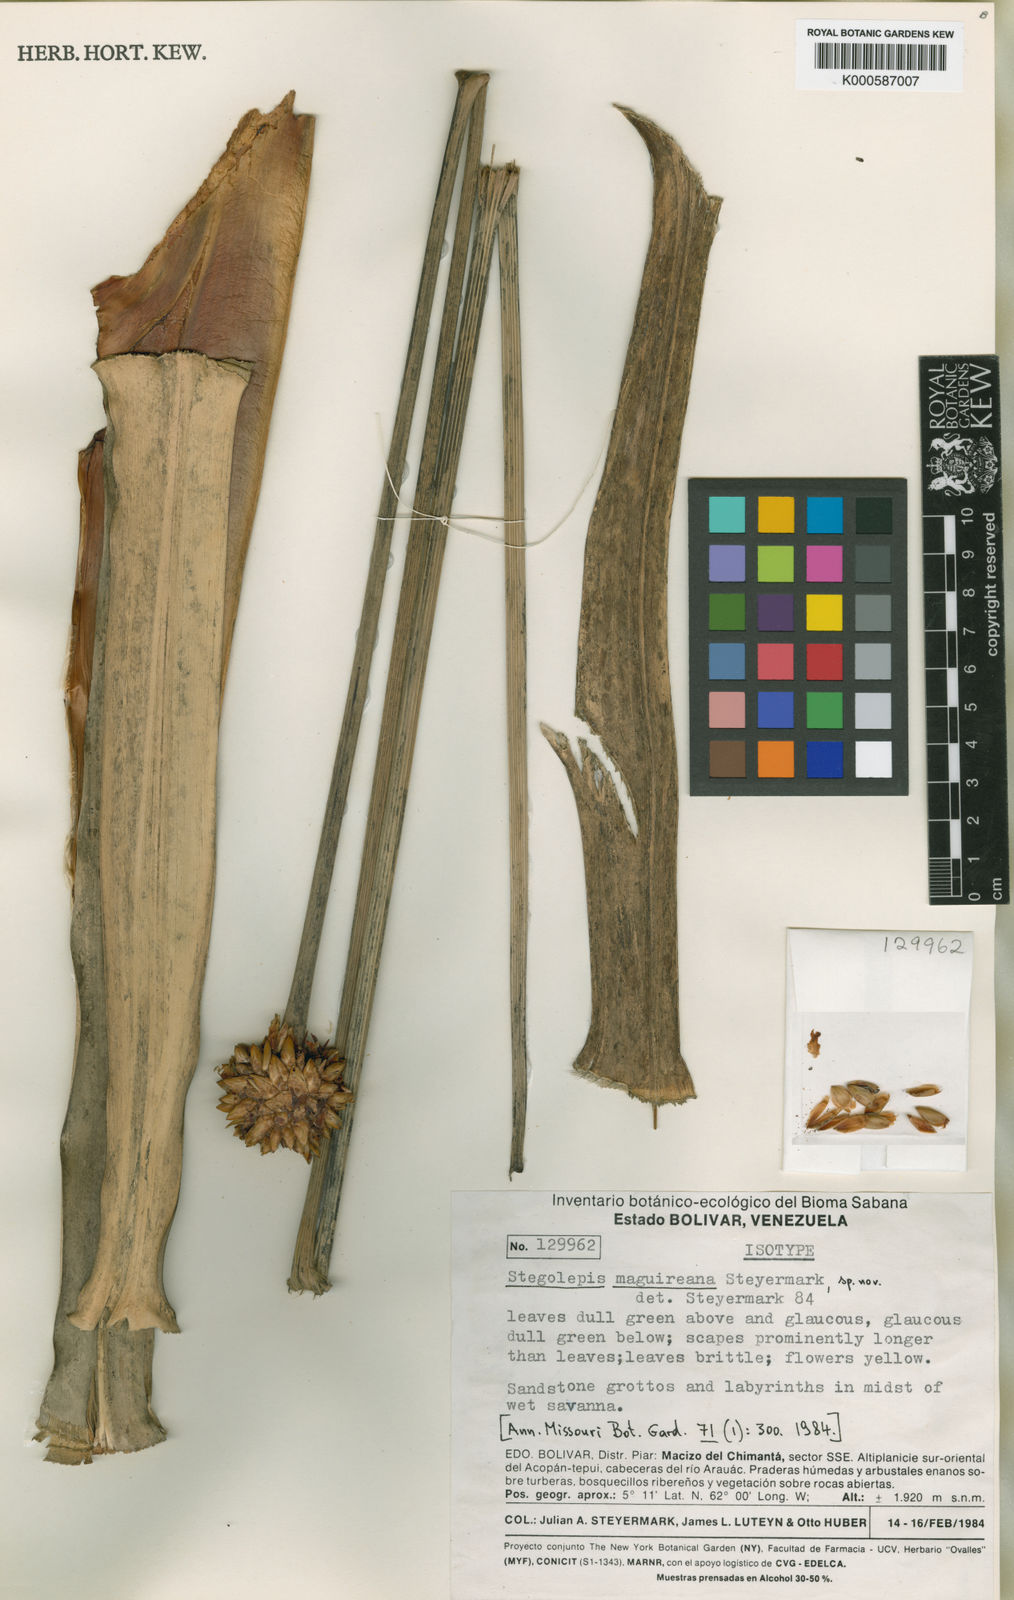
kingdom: Plantae
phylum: Tracheophyta
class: Liliopsida
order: Poales
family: Rapateaceae
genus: Stegolepis
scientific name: Stegolepis maguireana
